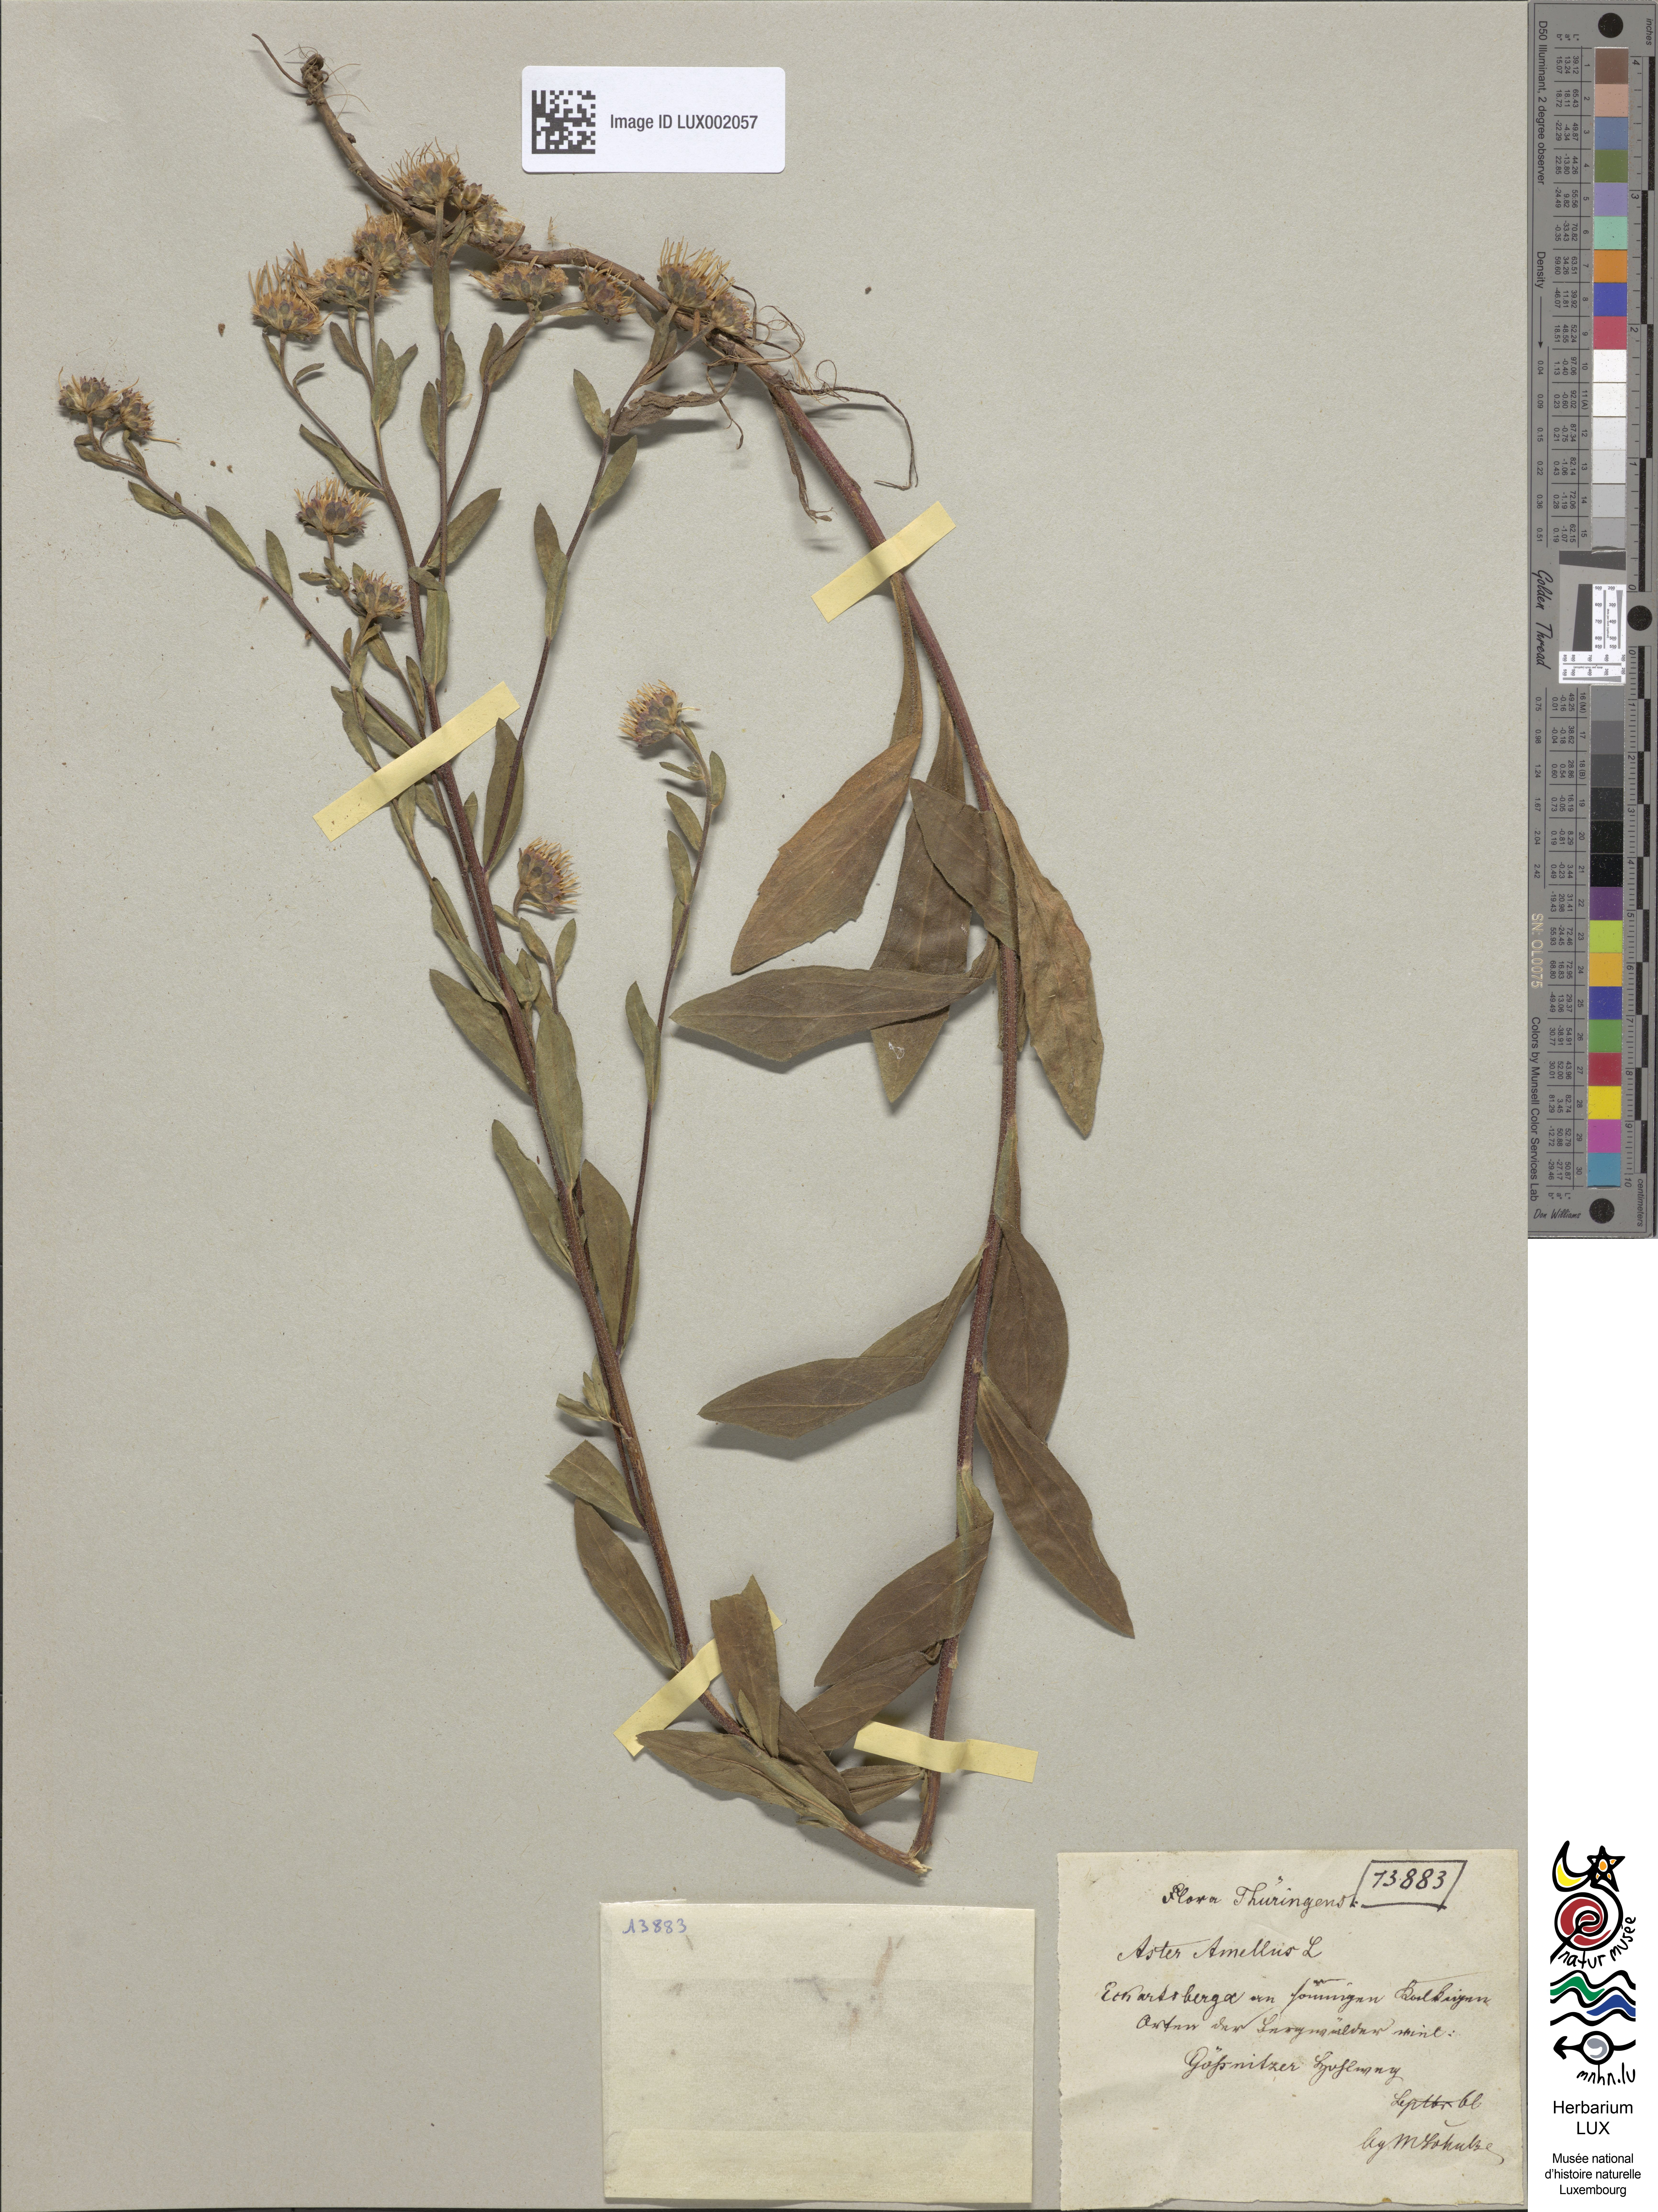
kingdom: Plantae
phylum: Tracheophyta
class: Magnoliopsida
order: Asterales
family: Asteraceae
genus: Aster
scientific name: Aster amellus
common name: European michaelmas daisy
